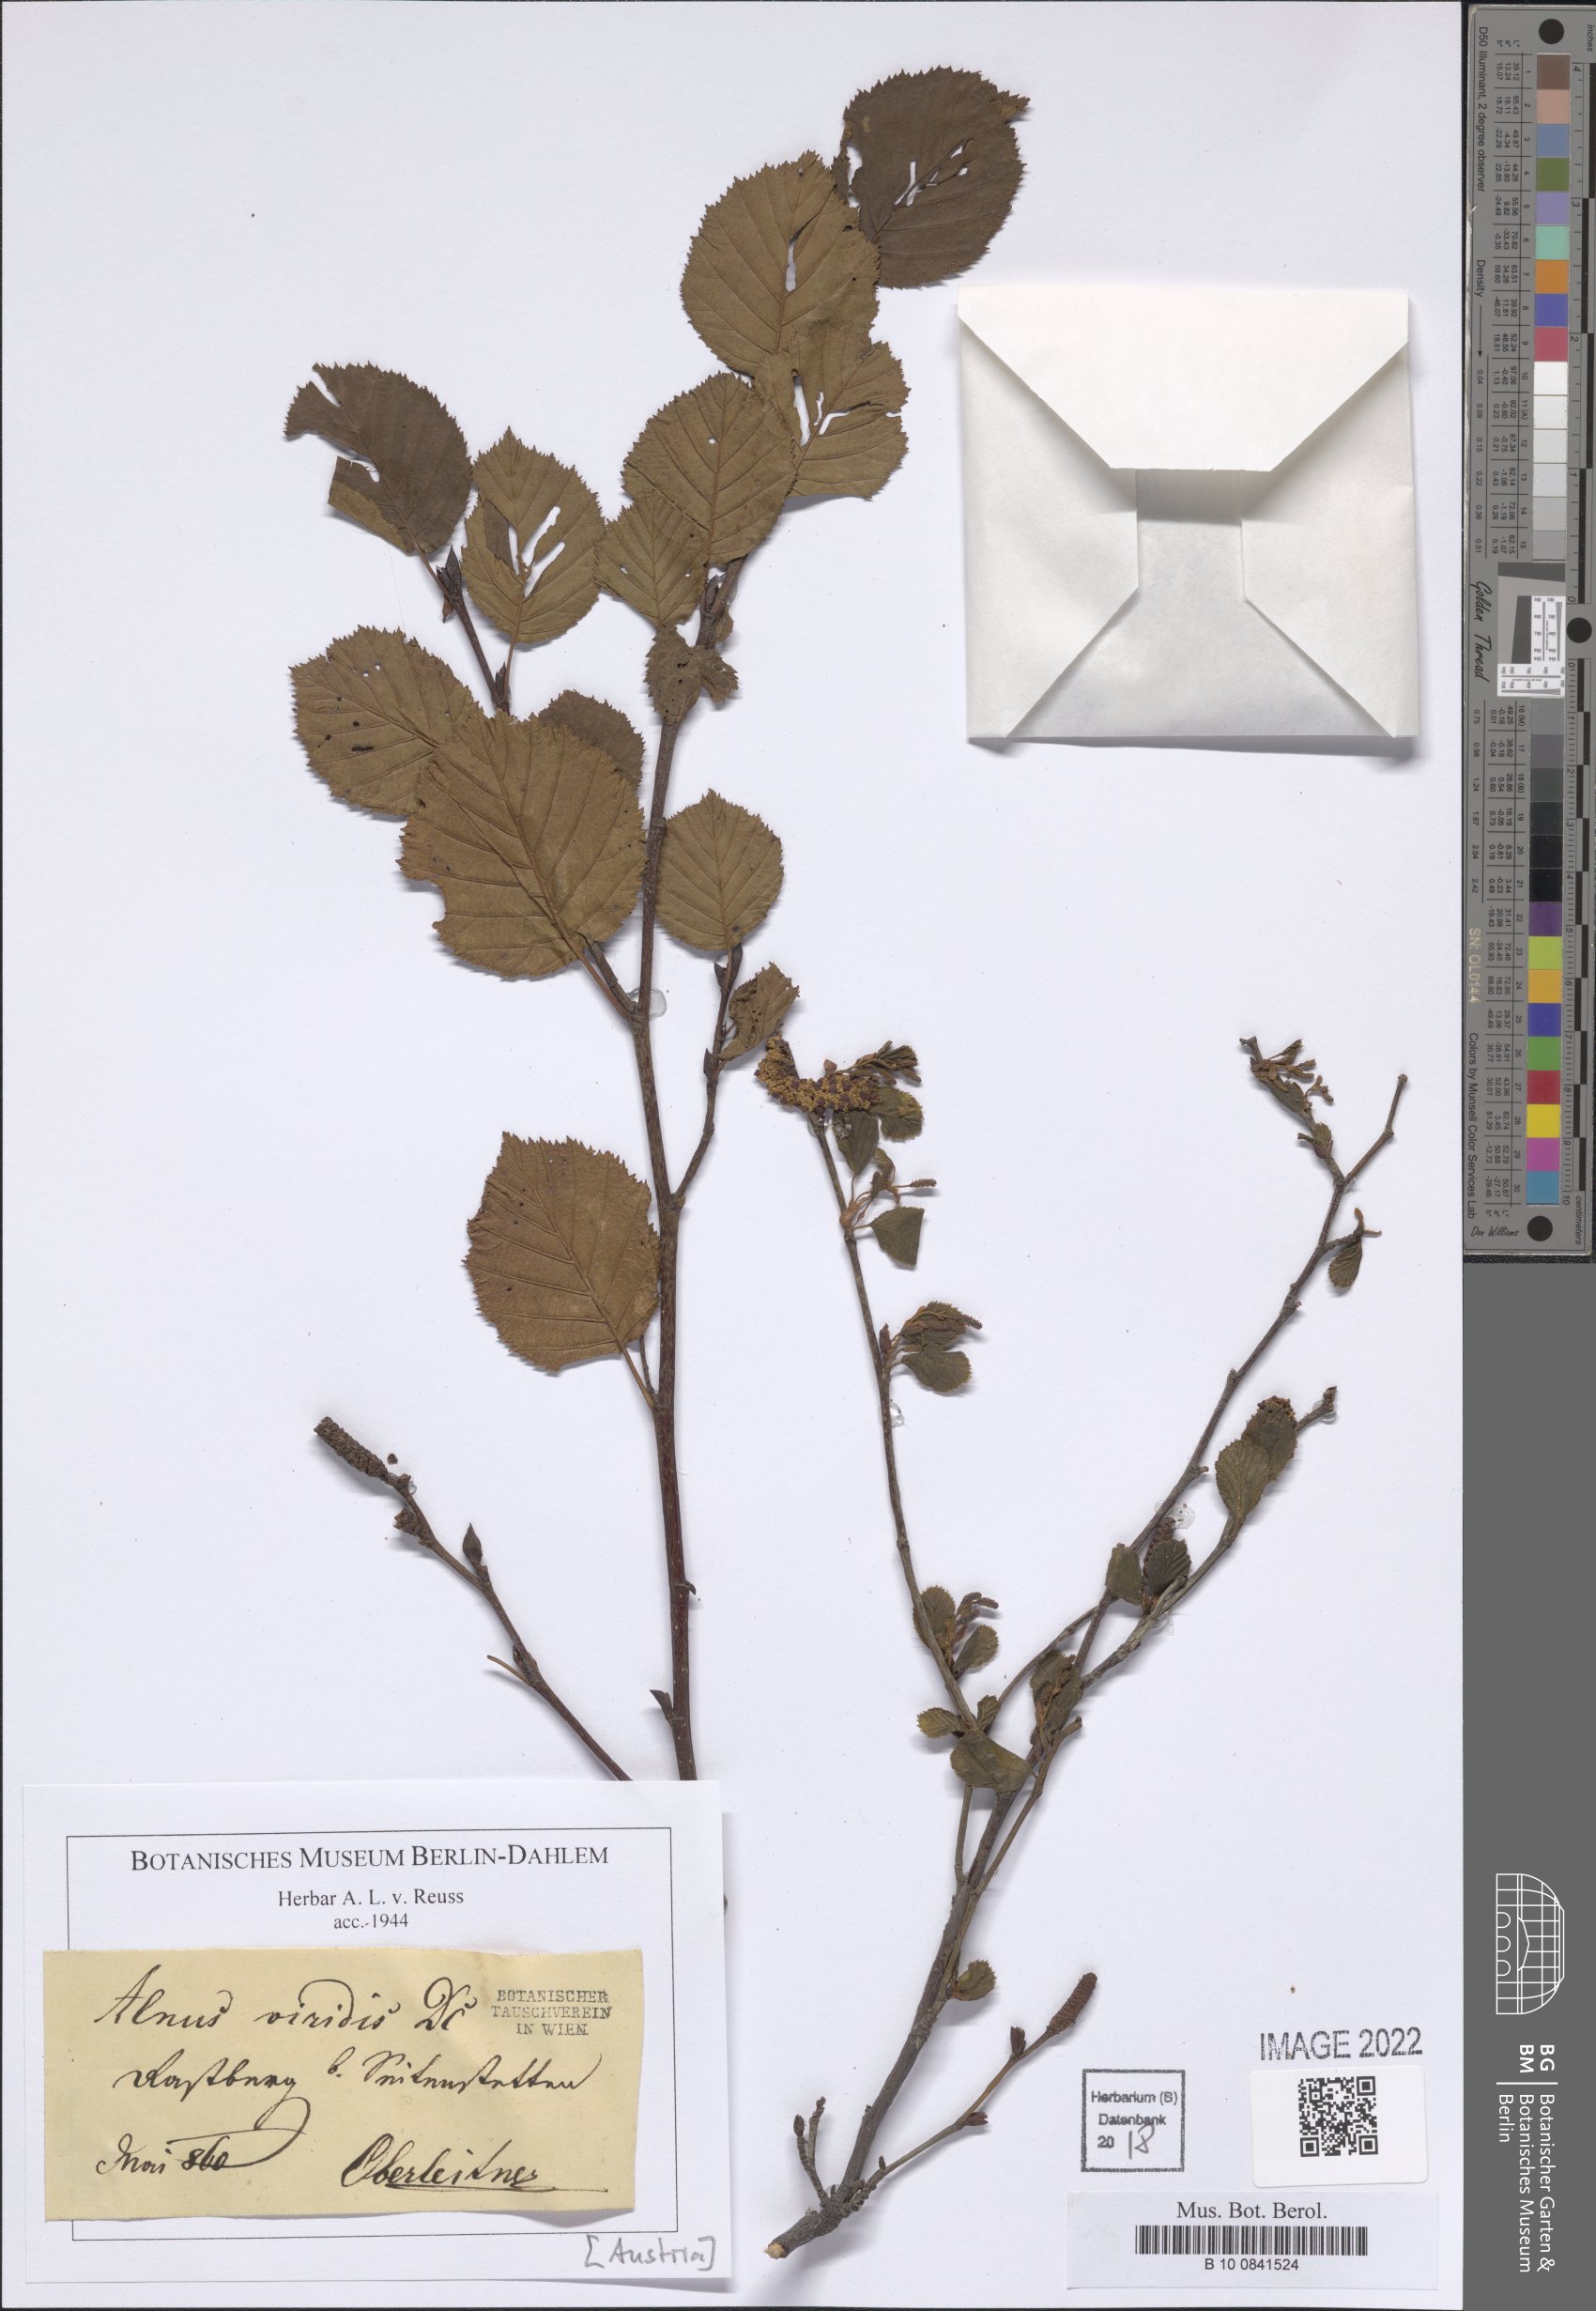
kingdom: Plantae
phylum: Tracheophyta
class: Magnoliopsida
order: Fagales
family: Betulaceae
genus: Alnus
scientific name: Alnus alnobetula
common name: Green alder
